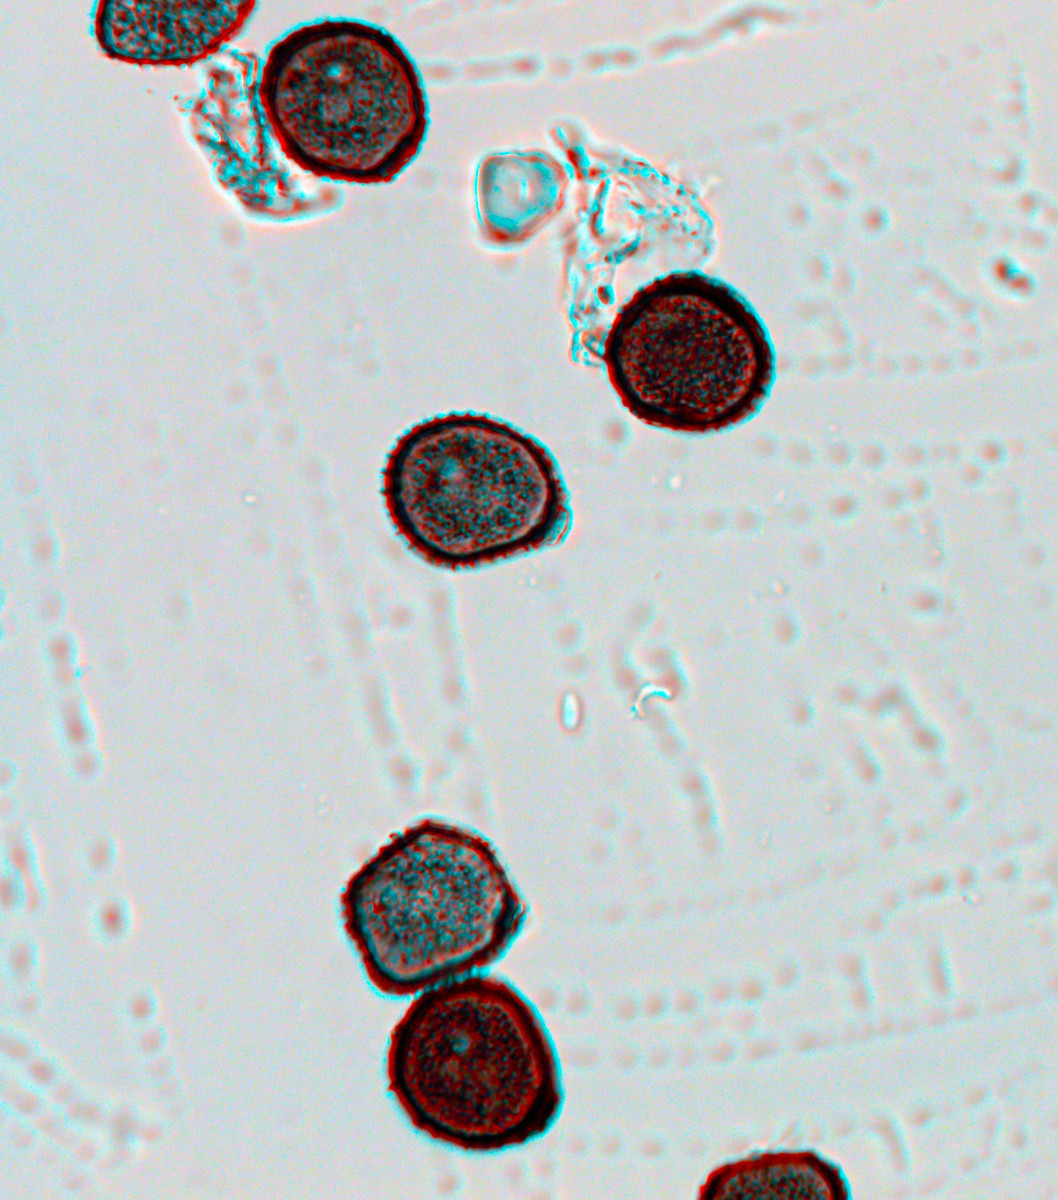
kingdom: Fungi
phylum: Basidiomycota
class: Pucciniomycetes
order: Pucciniales
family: Pucciniaceae
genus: Puccinia
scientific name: Puccinia hieracii
